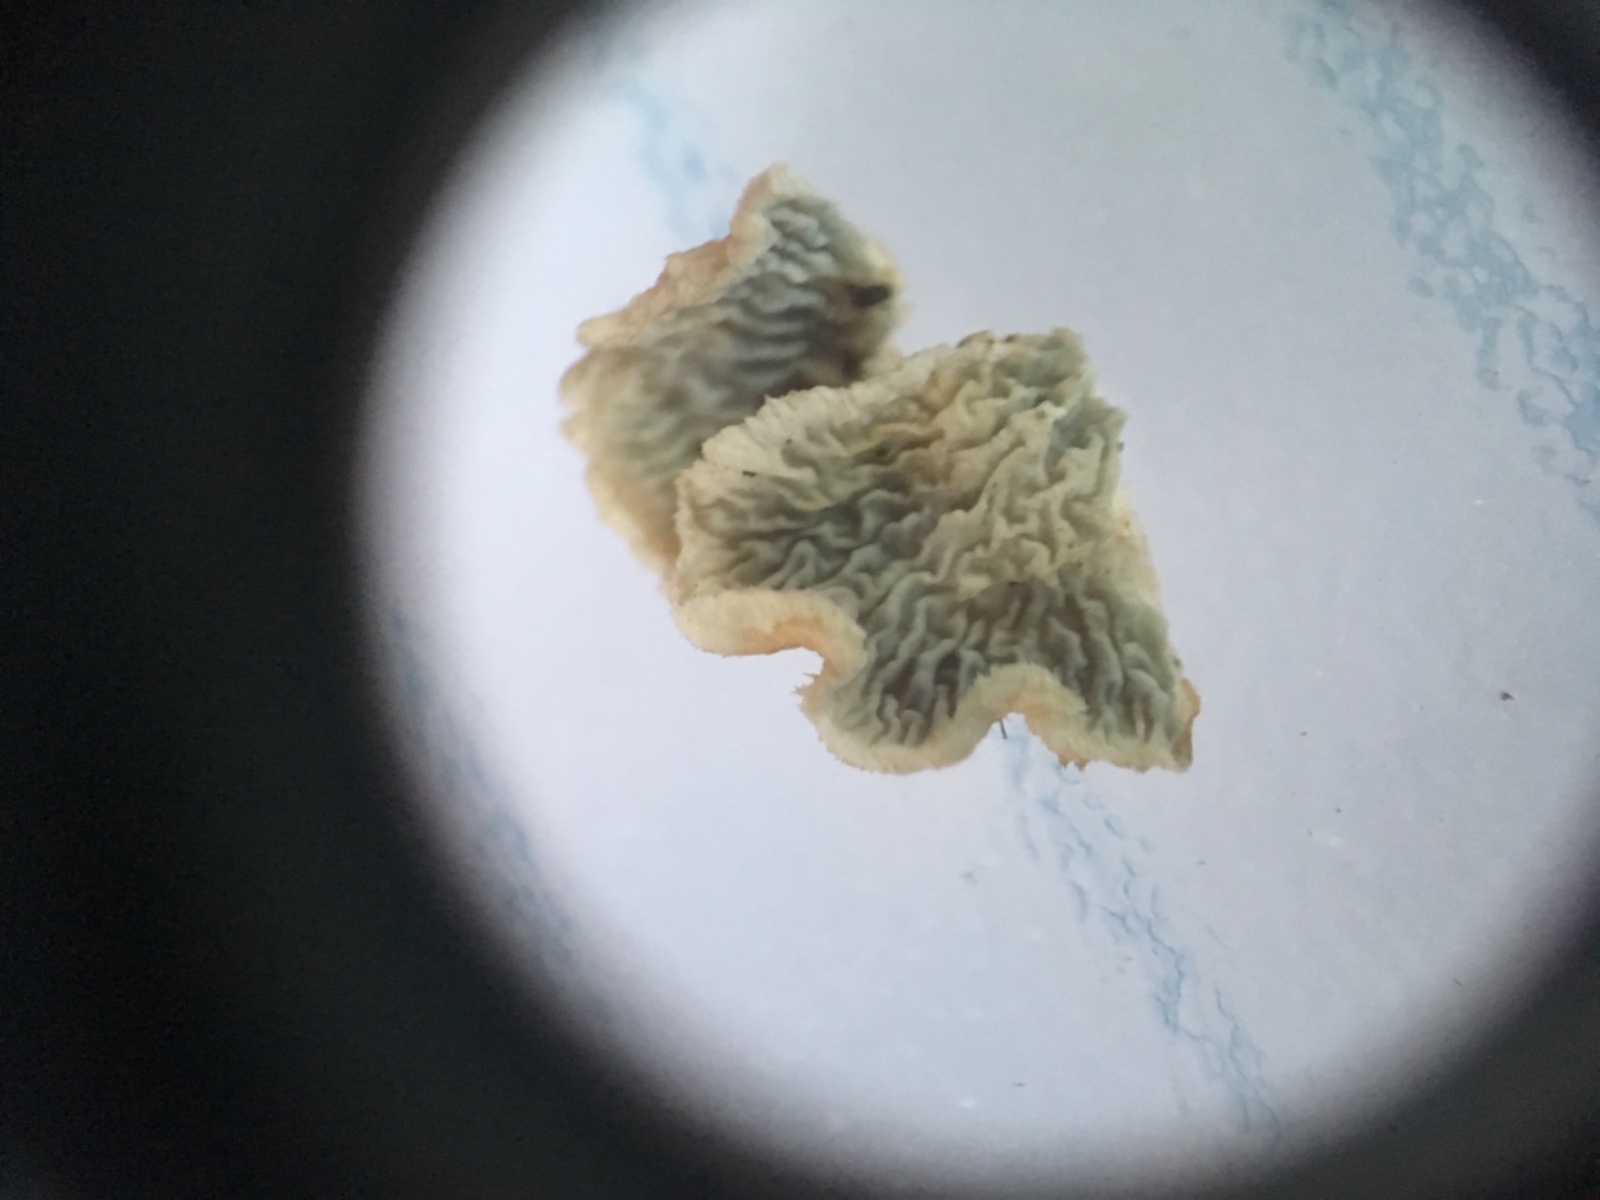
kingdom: Fungi
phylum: Basidiomycota
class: Agaricomycetes
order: Amylocorticiales
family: Amylocorticiaceae
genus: Plicaturopsis
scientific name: Plicaturopsis crispa
